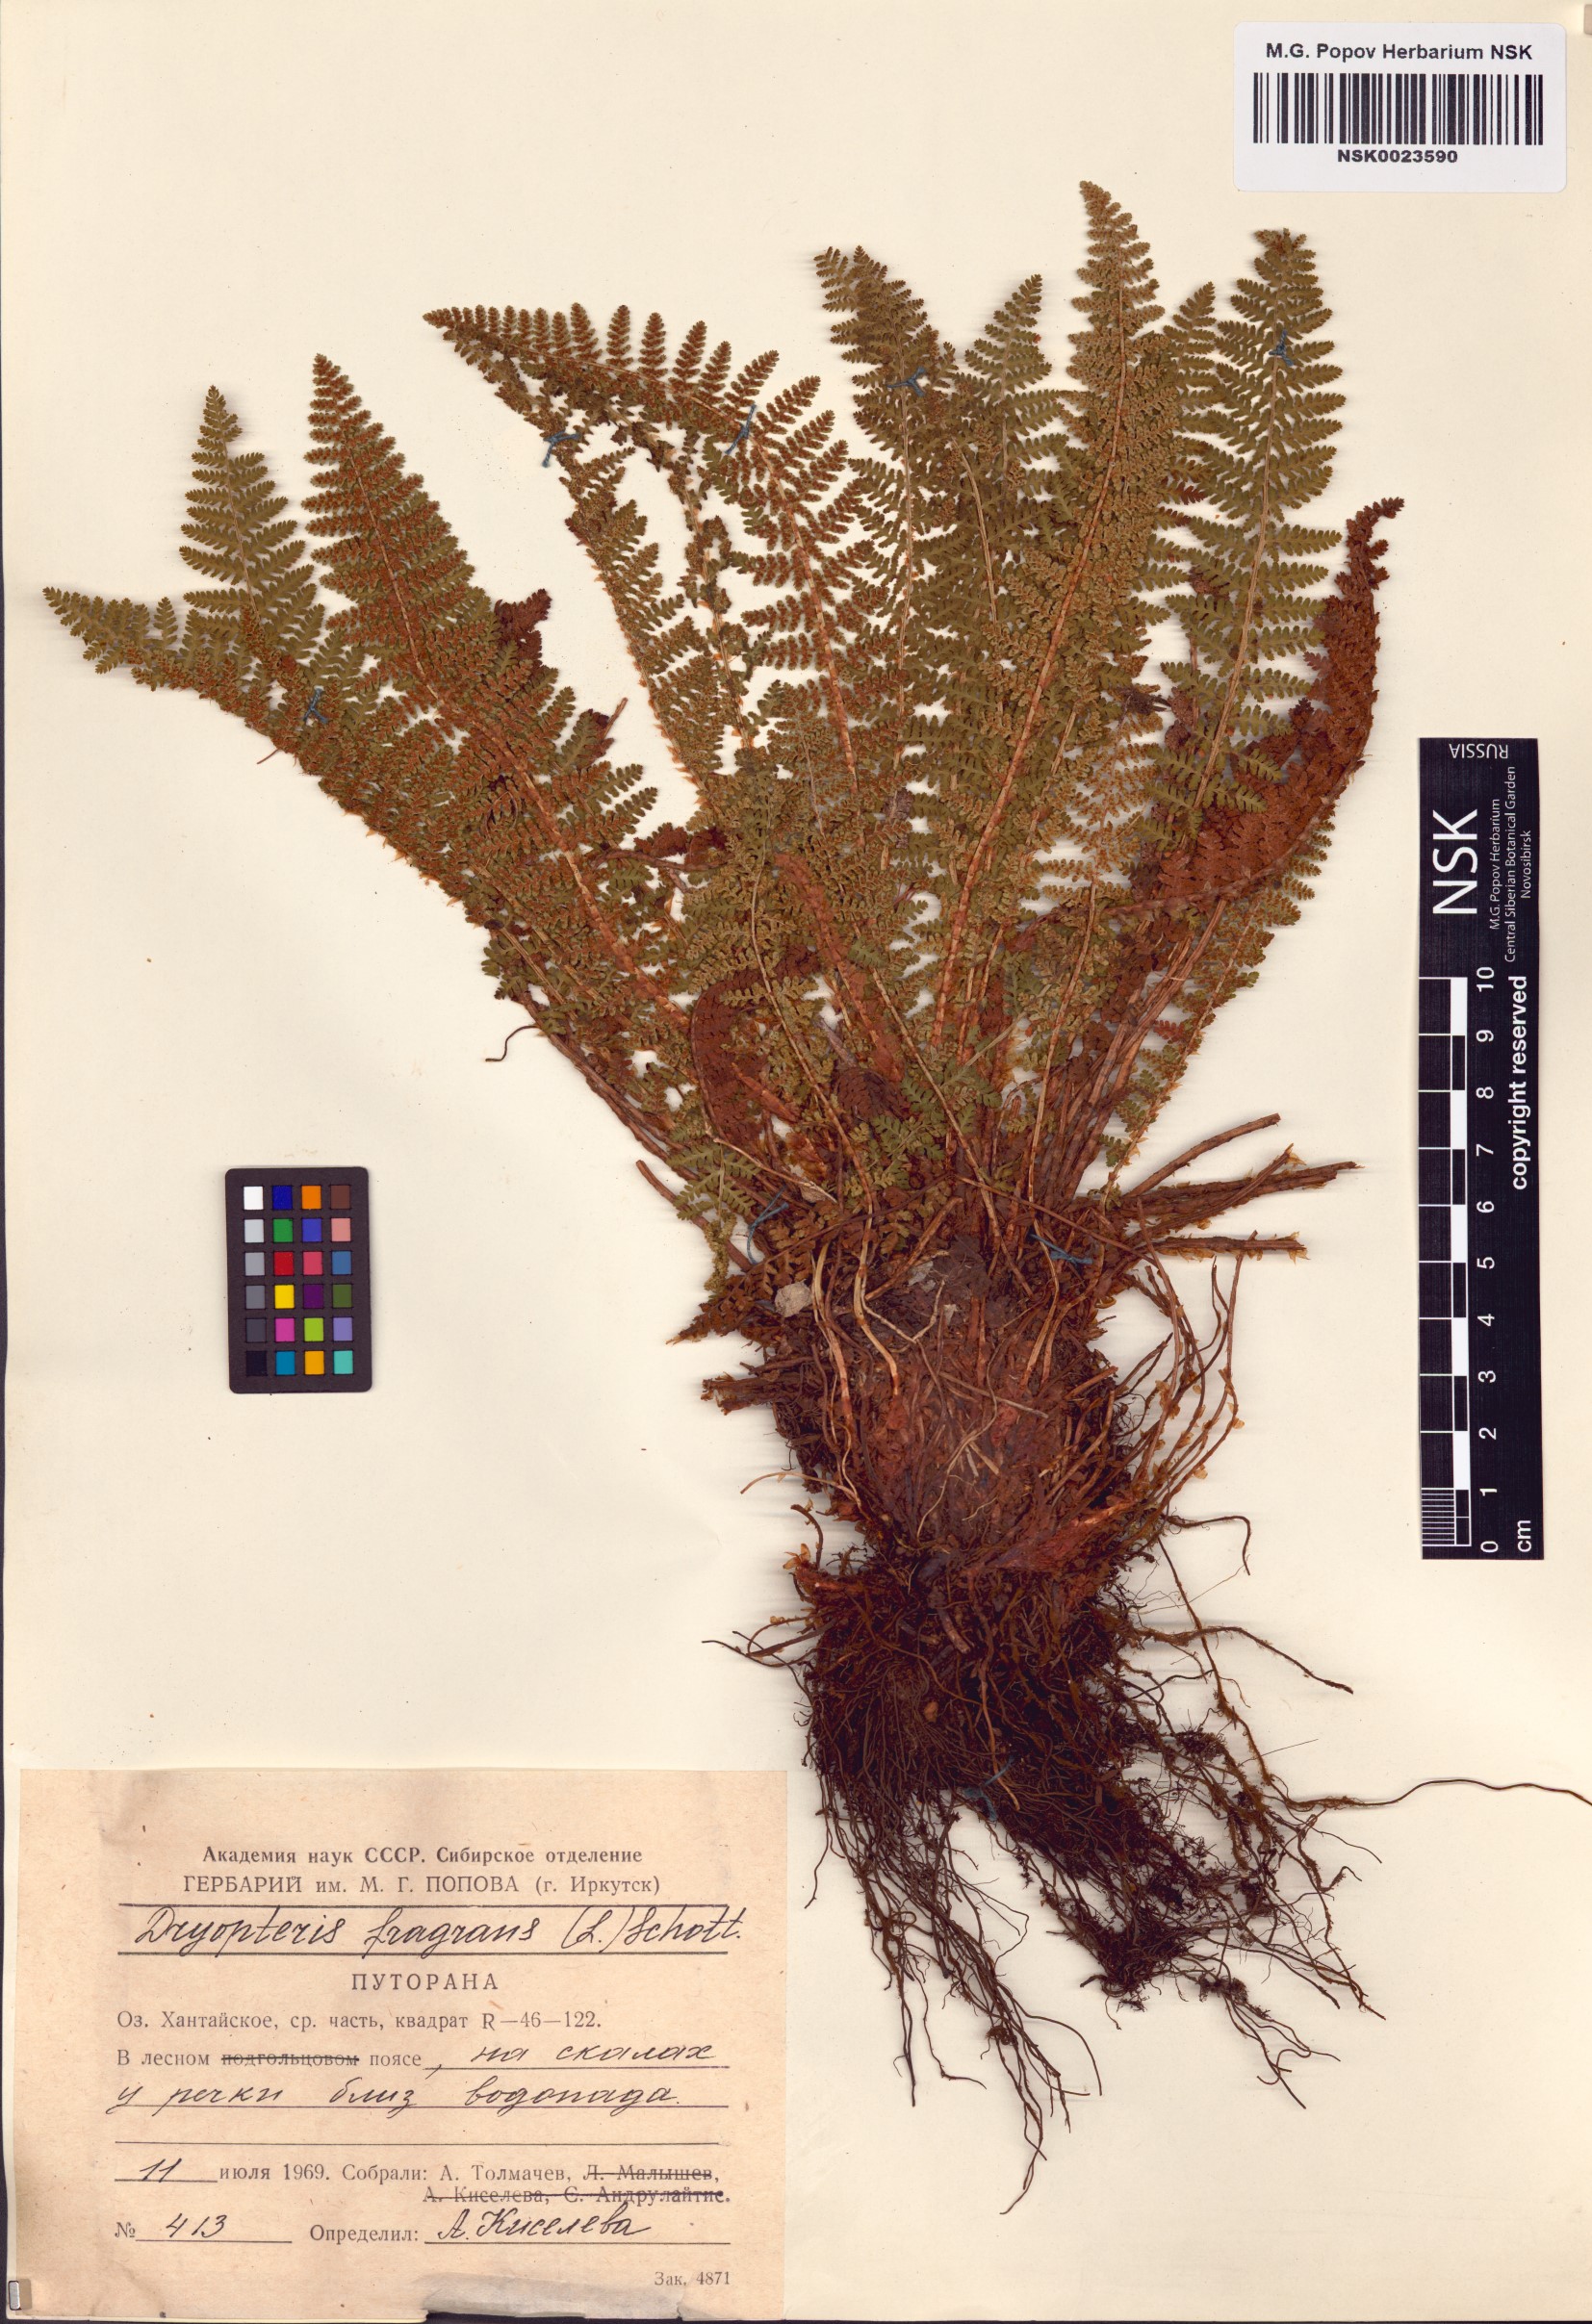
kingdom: Plantae
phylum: Tracheophyta
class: Polypodiopsida
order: Polypodiales
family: Dryopteridaceae
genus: Dryopteris
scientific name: Dryopteris fragrans
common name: Fragrant wood fern
